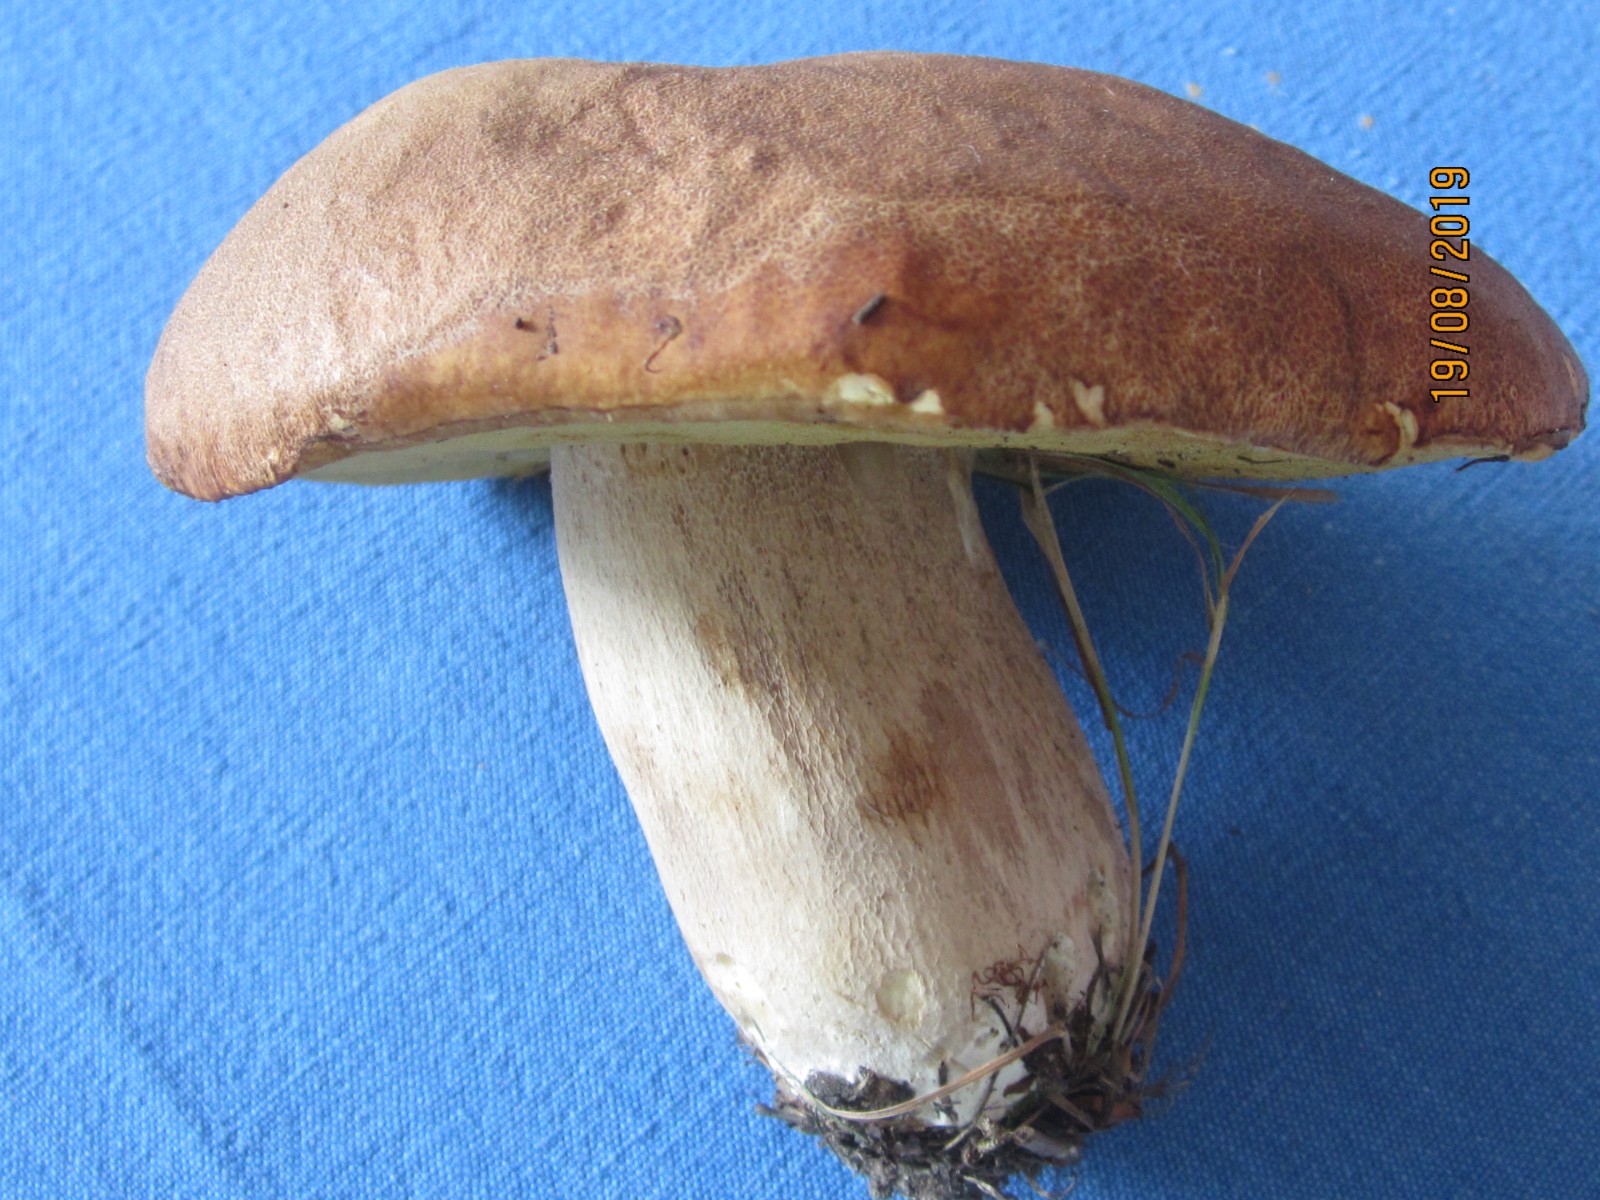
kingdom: Fungi
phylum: Basidiomycota
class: Agaricomycetes
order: Boletales
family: Boletaceae
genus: Boletus
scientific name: Boletus reticulatus
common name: sommer-rørhat
